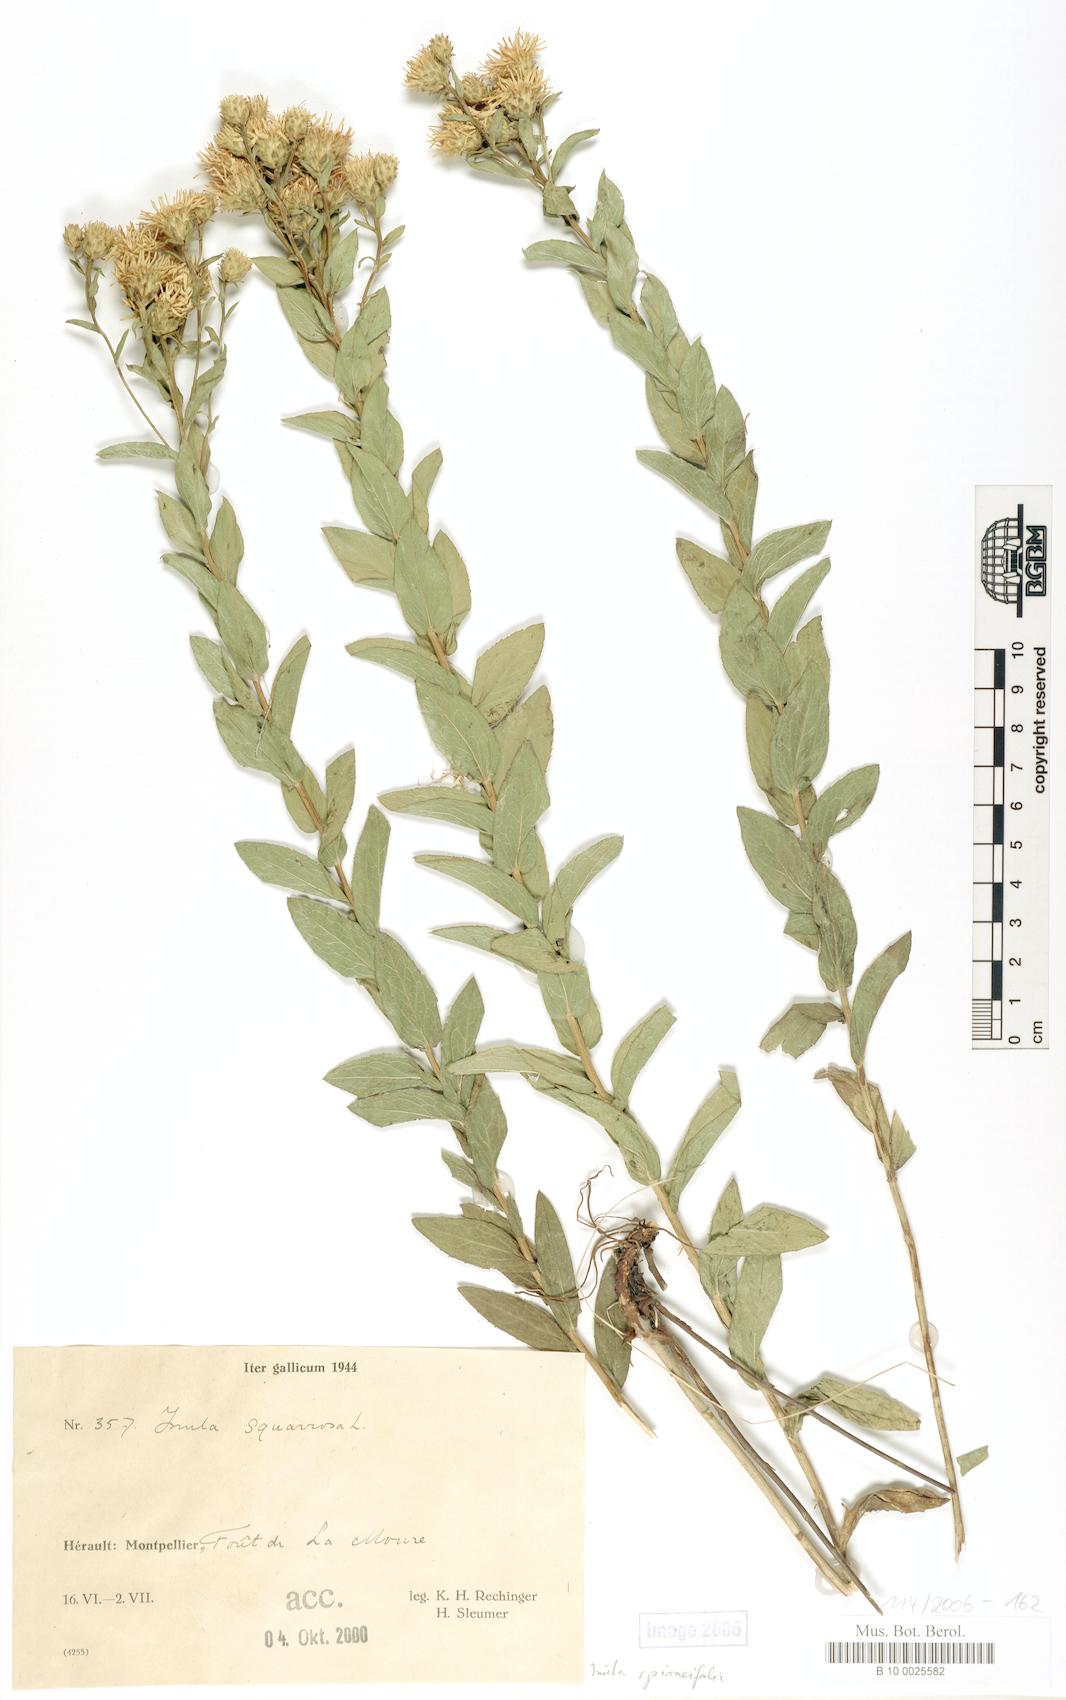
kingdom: Plantae
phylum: Tracheophyta
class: Magnoliopsida
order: Asterales
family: Asteraceae
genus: Pentanema
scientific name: Pentanema spiraeifolium
